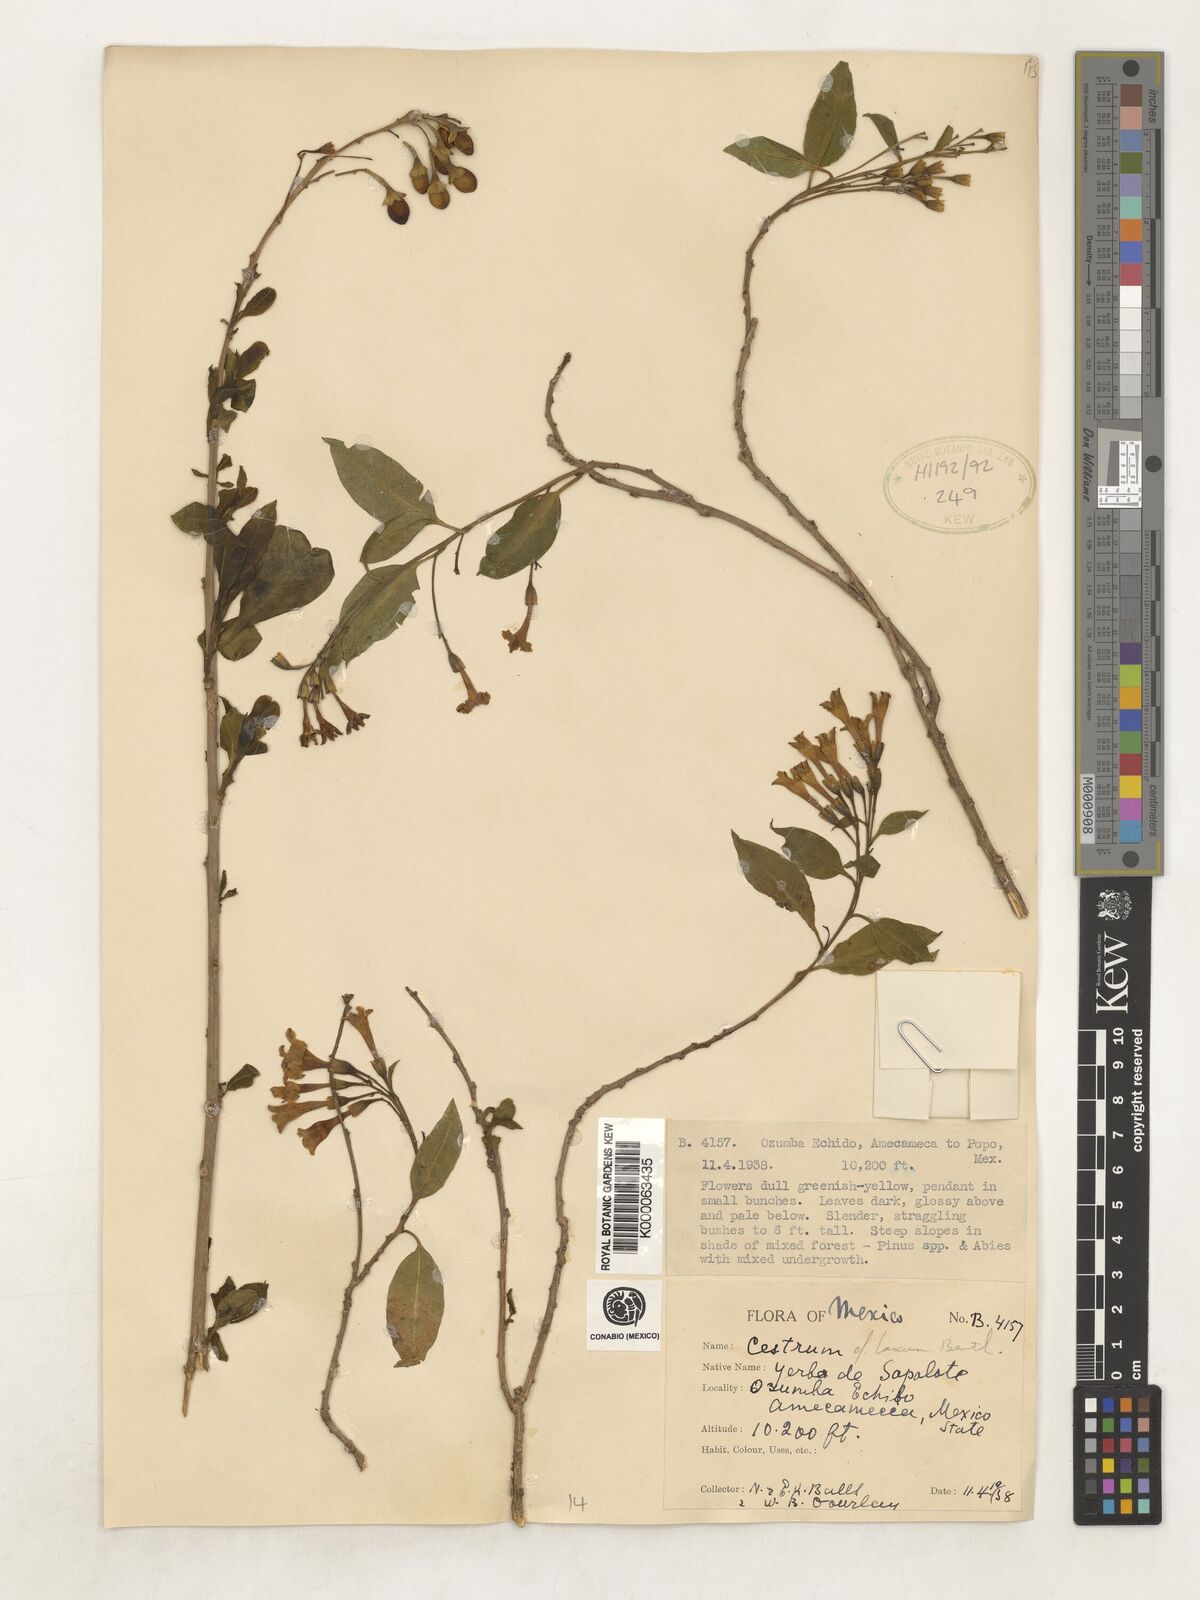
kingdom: Plantae
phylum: Tracheophyta
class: Magnoliopsida
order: Solanales
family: Solanaceae
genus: Cestrum
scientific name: Cestrum laxum
